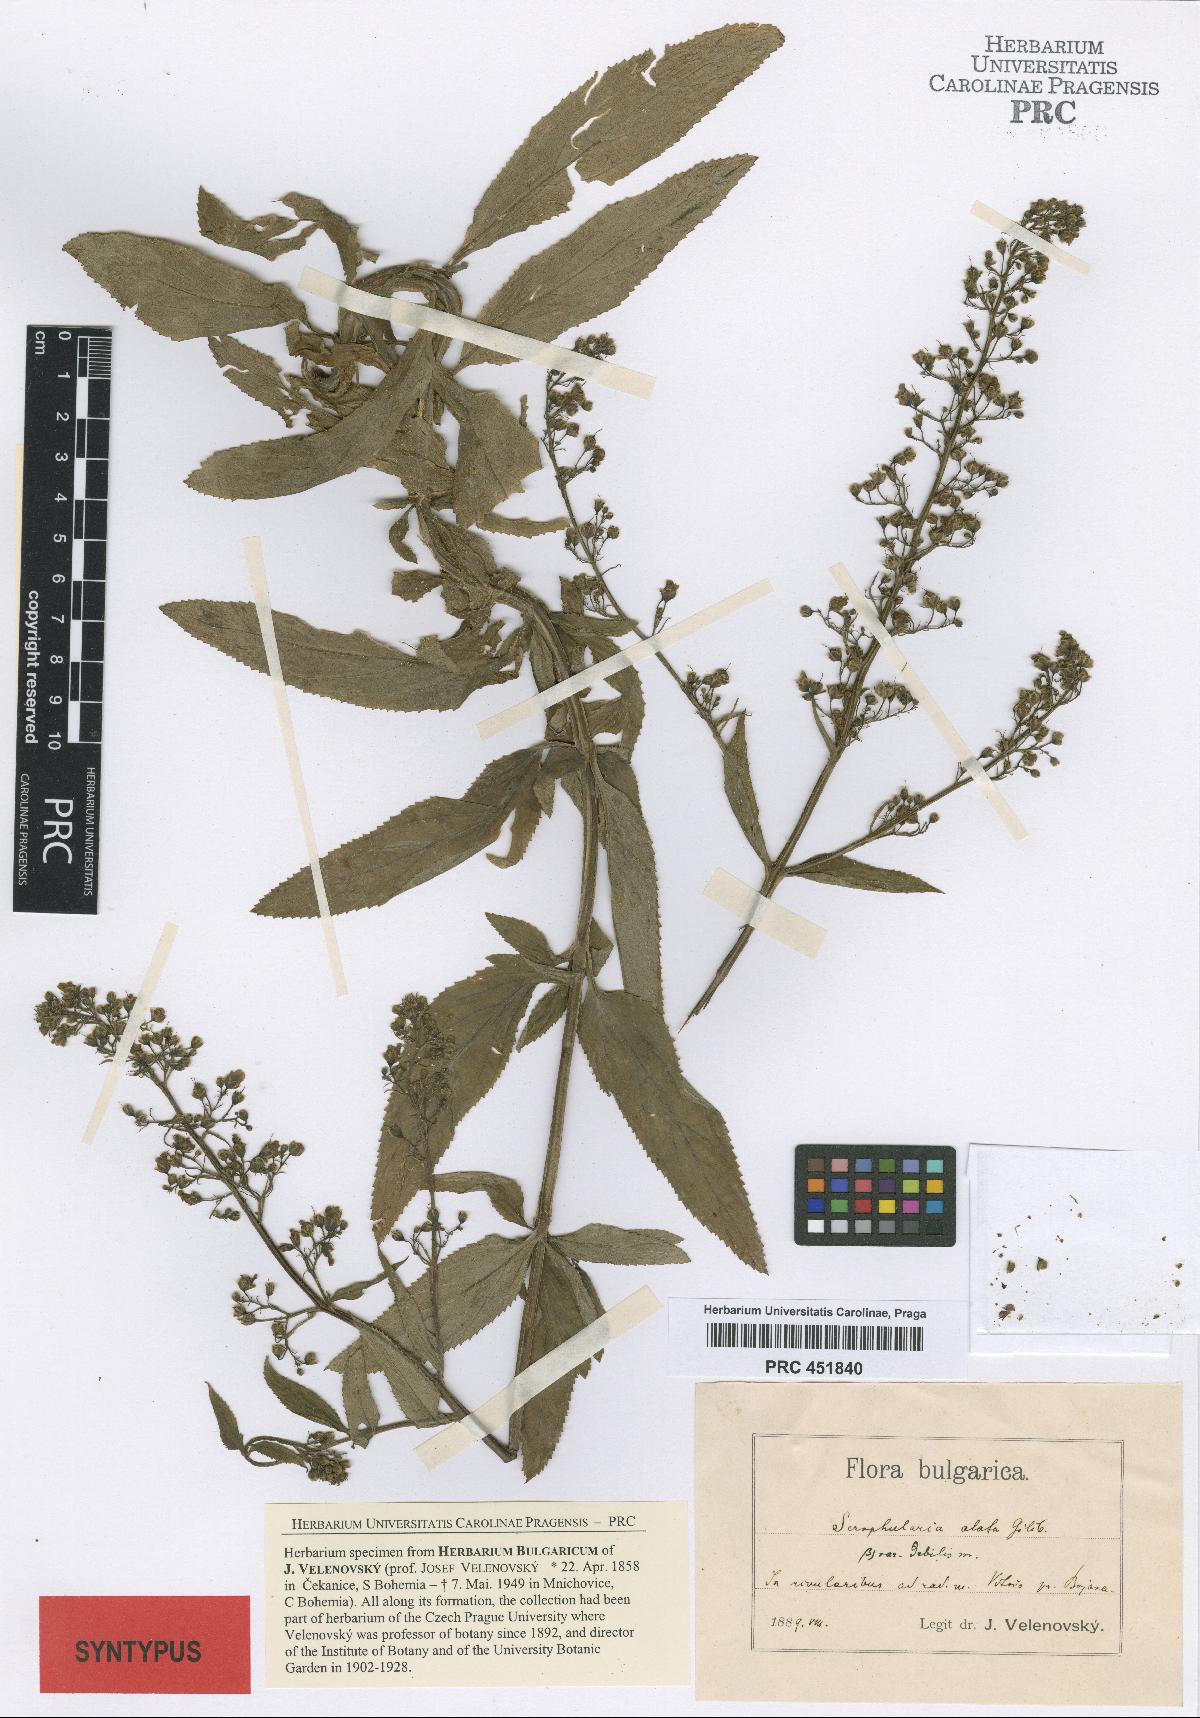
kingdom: Plantae
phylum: Tracheophyta
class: Magnoliopsida
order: Lamiales
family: Scrophulariaceae
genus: Scrophularia
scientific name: Scrophularia alata
